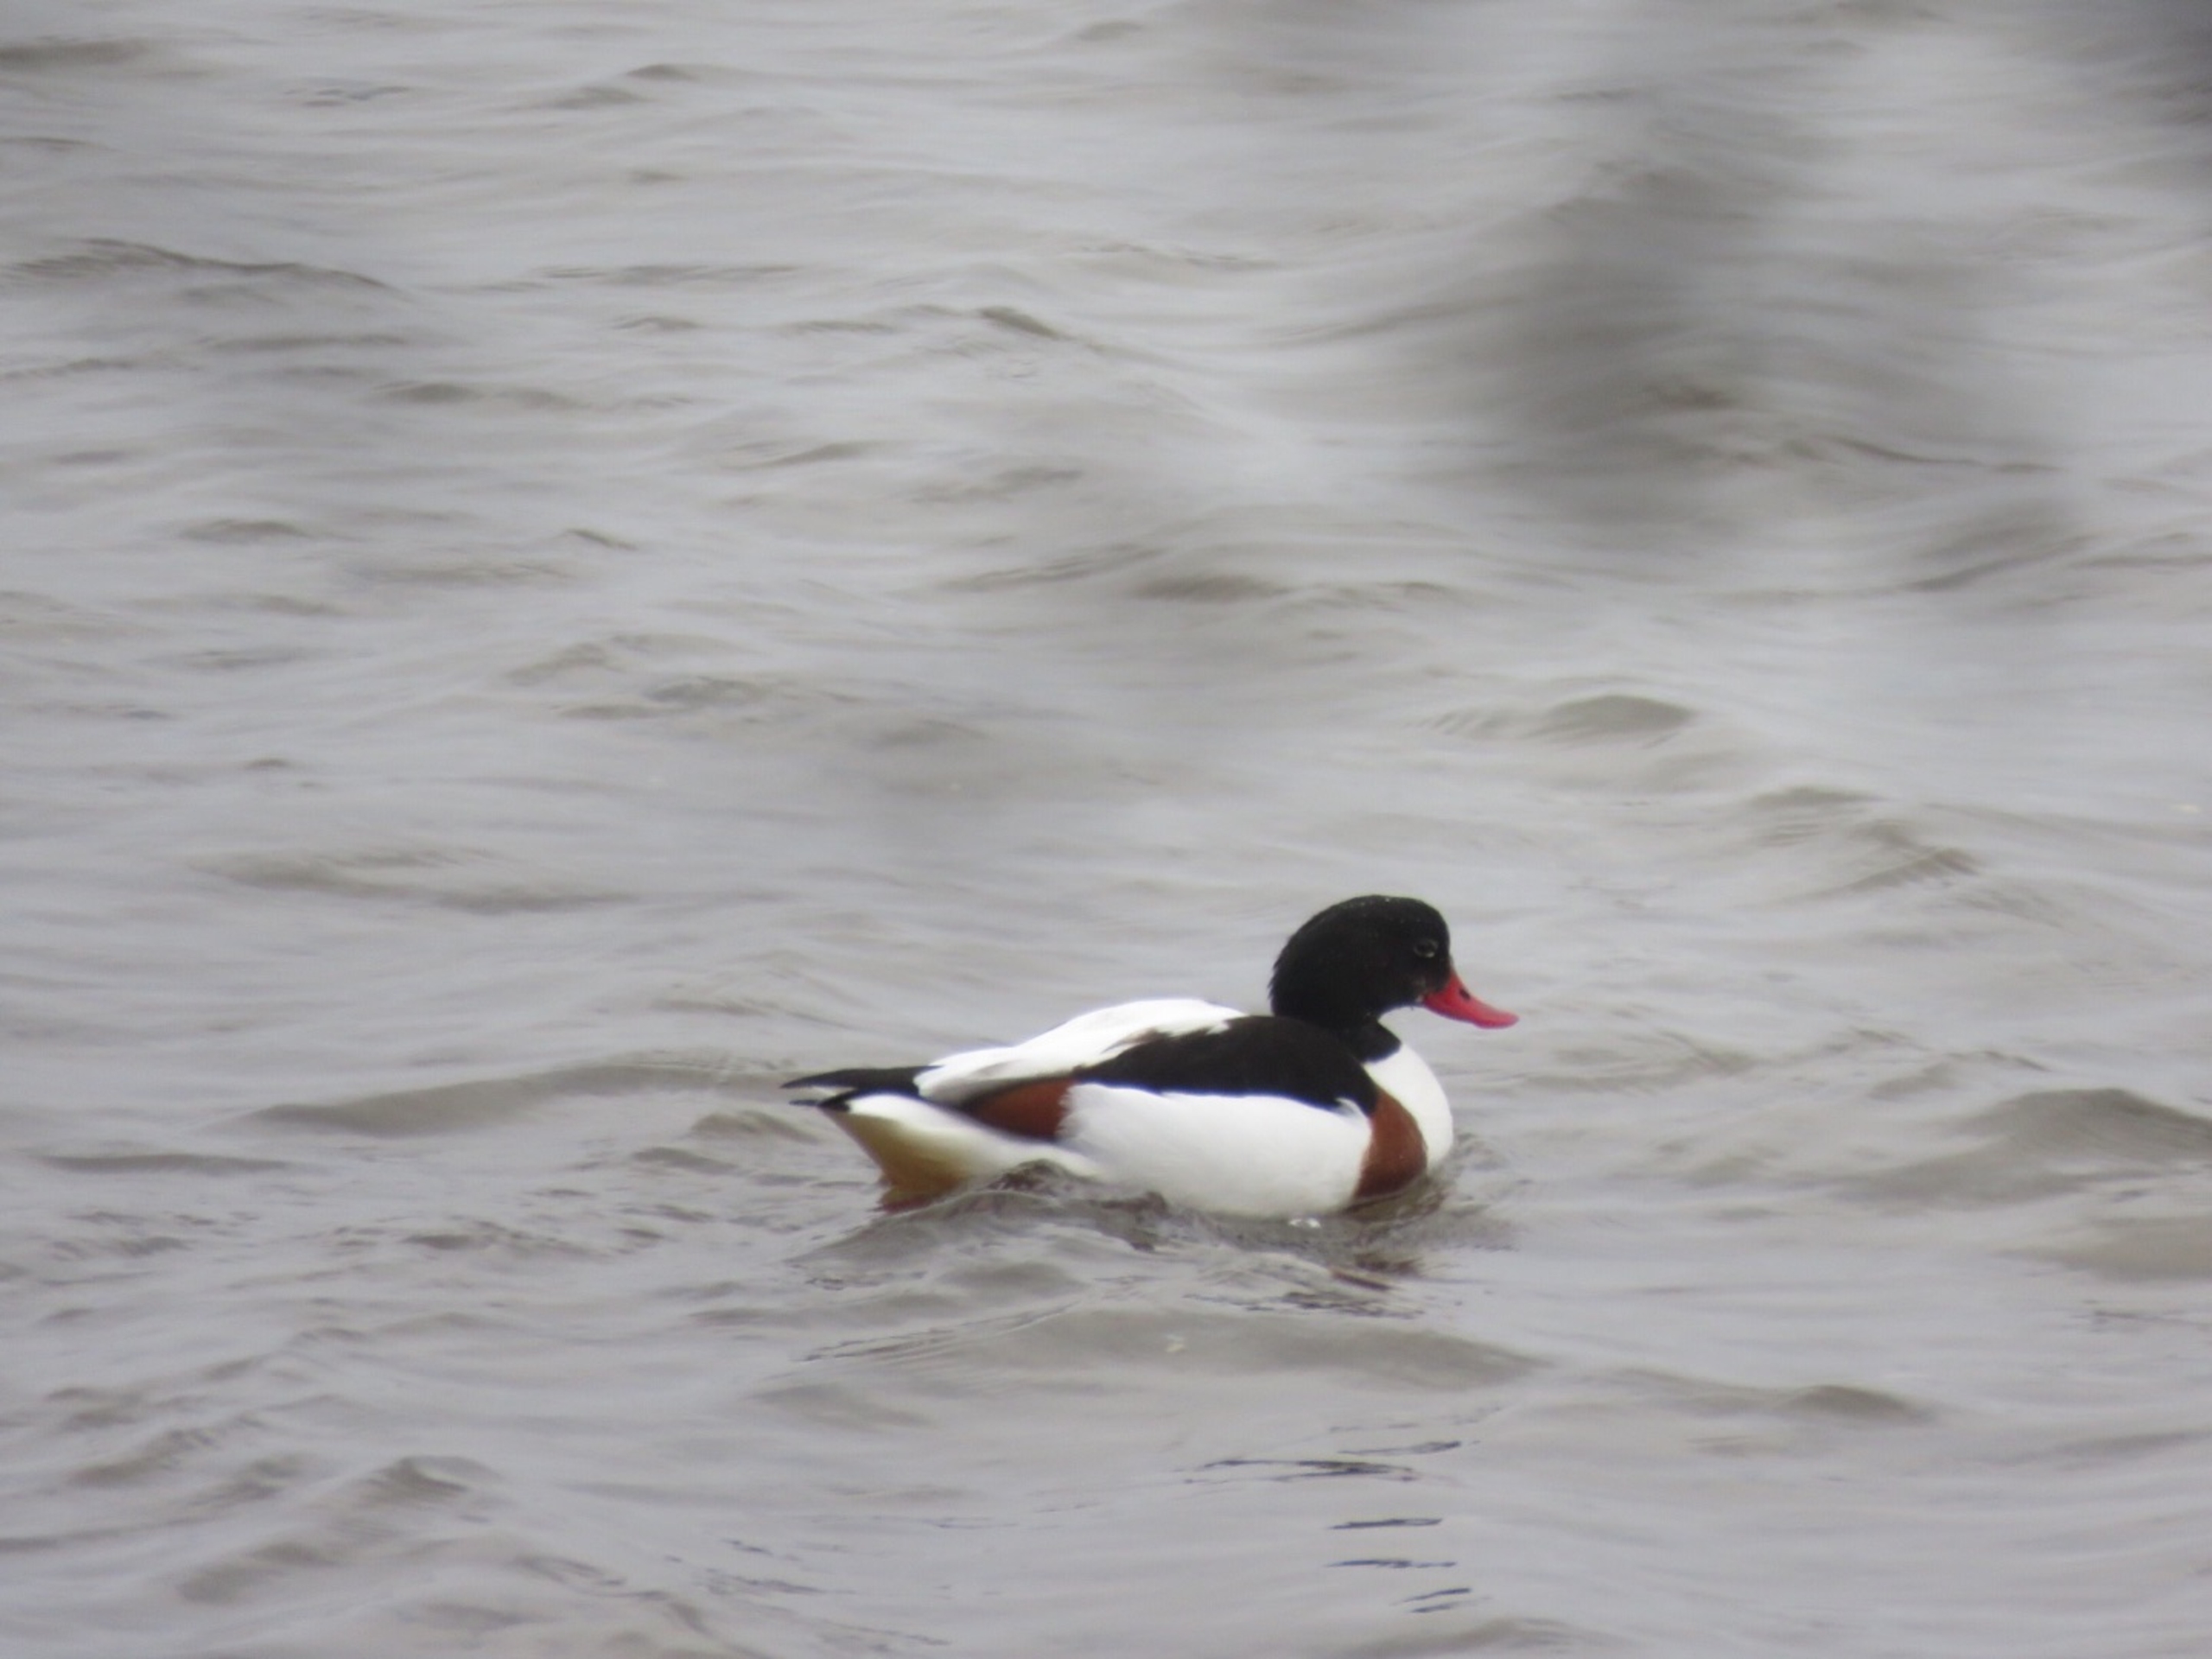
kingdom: Animalia
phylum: Chordata
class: Aves
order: Anseriformes
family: Anatidae
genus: Tadorna
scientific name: Tadorna tadorna
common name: Gravand
